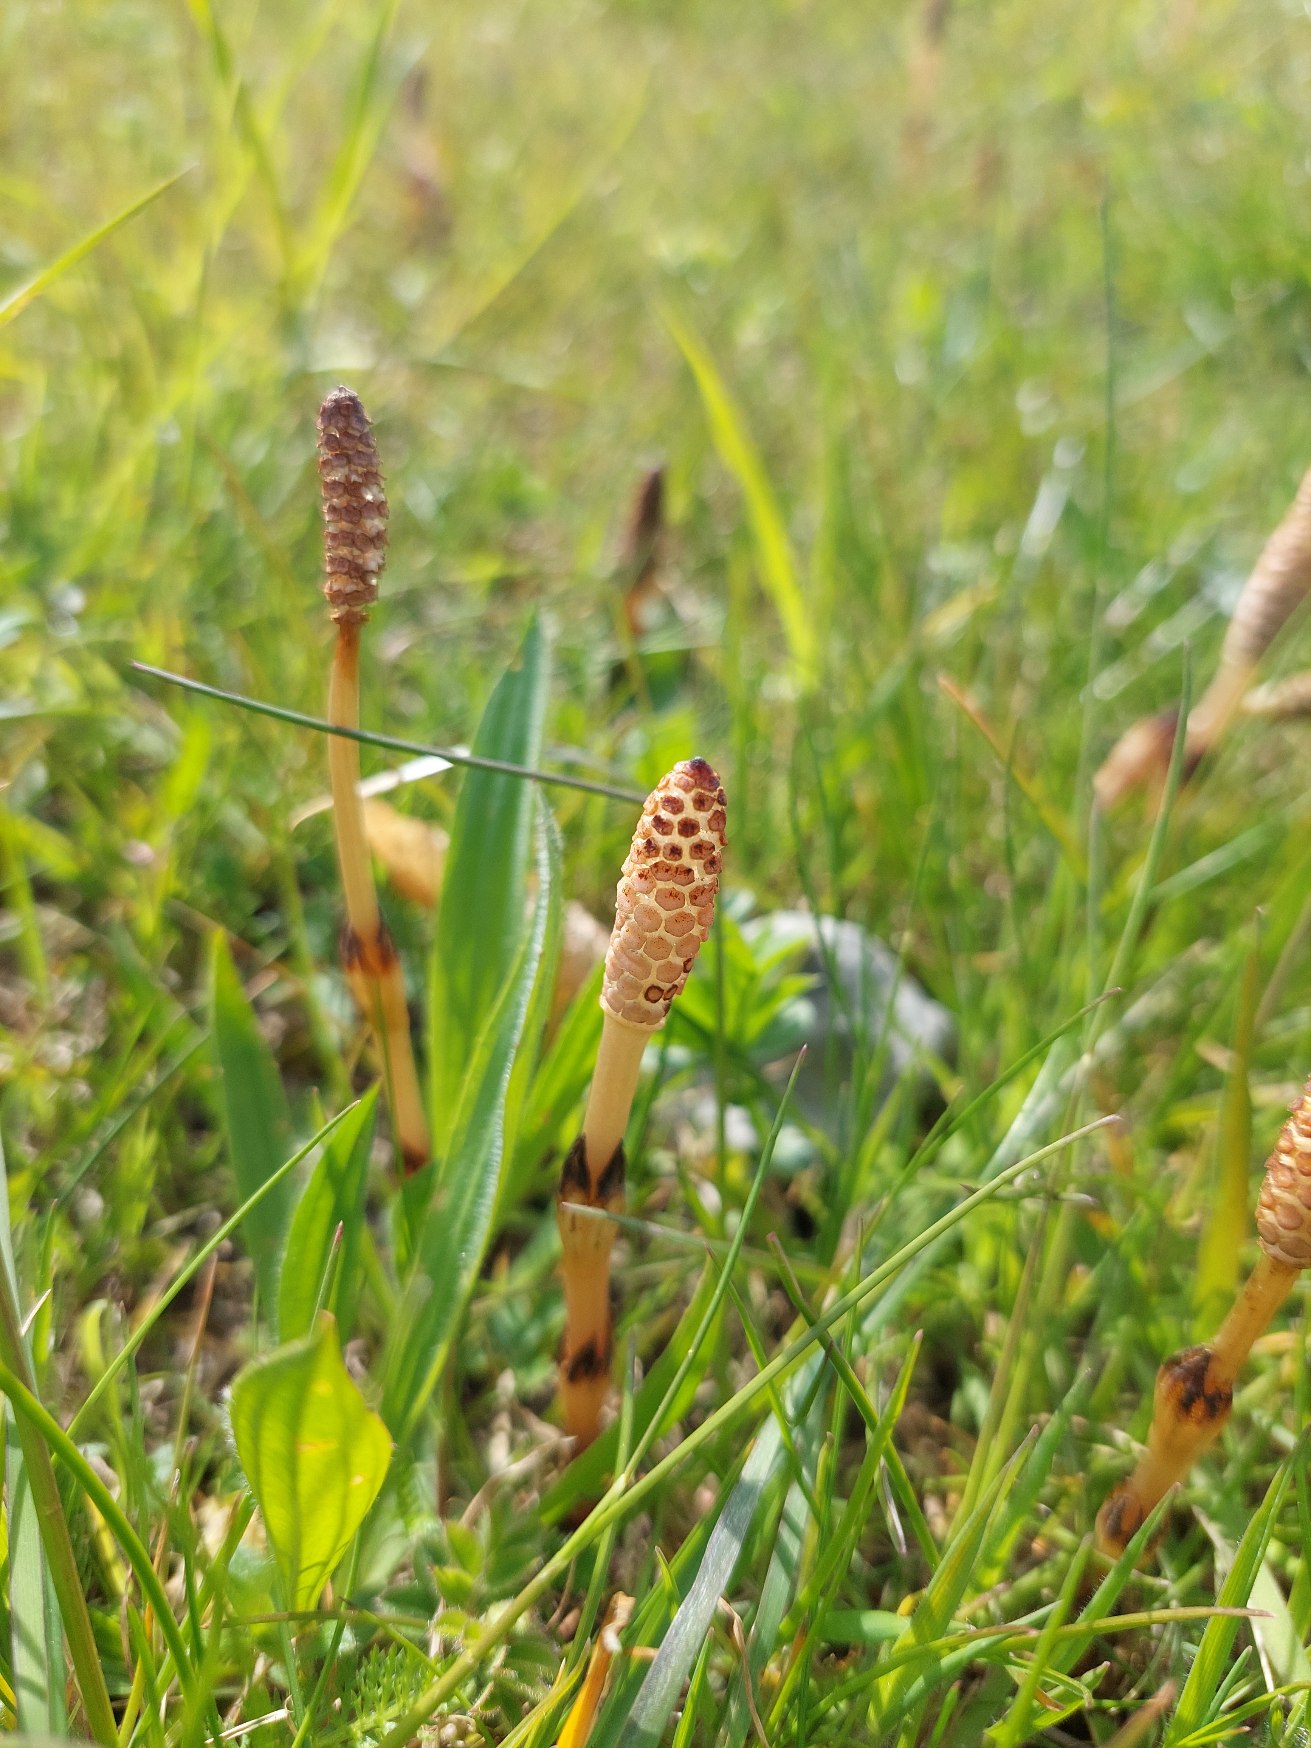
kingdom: Plantae
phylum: Tracheophyta
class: Polypodiopsida
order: Equisetales
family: Equisetaceae
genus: Equisetum
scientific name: Equisetum arvense
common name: Ager-padderok
